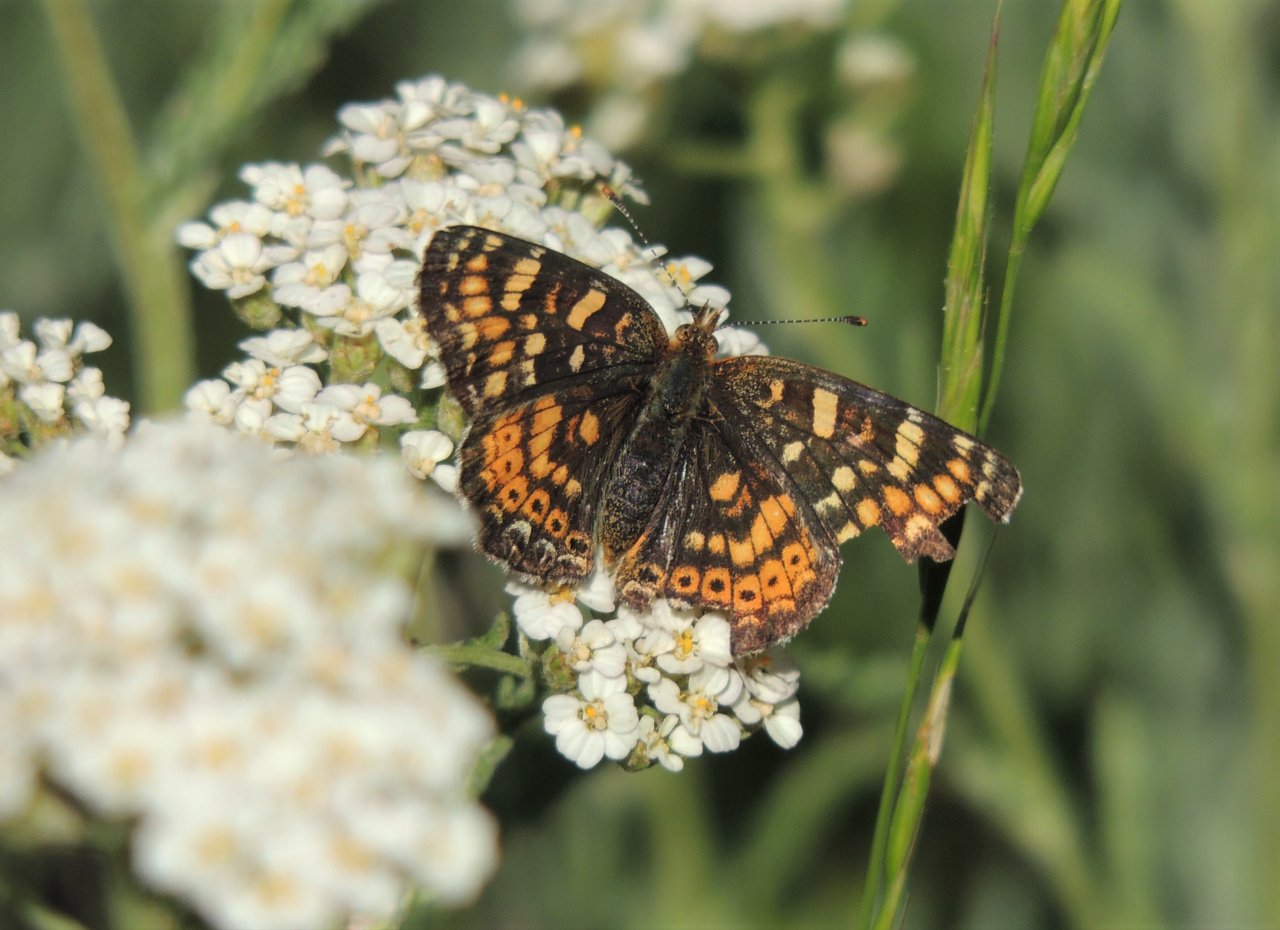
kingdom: Animalia
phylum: Arthropoda
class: Insecta
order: Lepidoptera
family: Nymphalidae
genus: Phyciodes
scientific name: Phyciodes tharos
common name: Field Crescent
